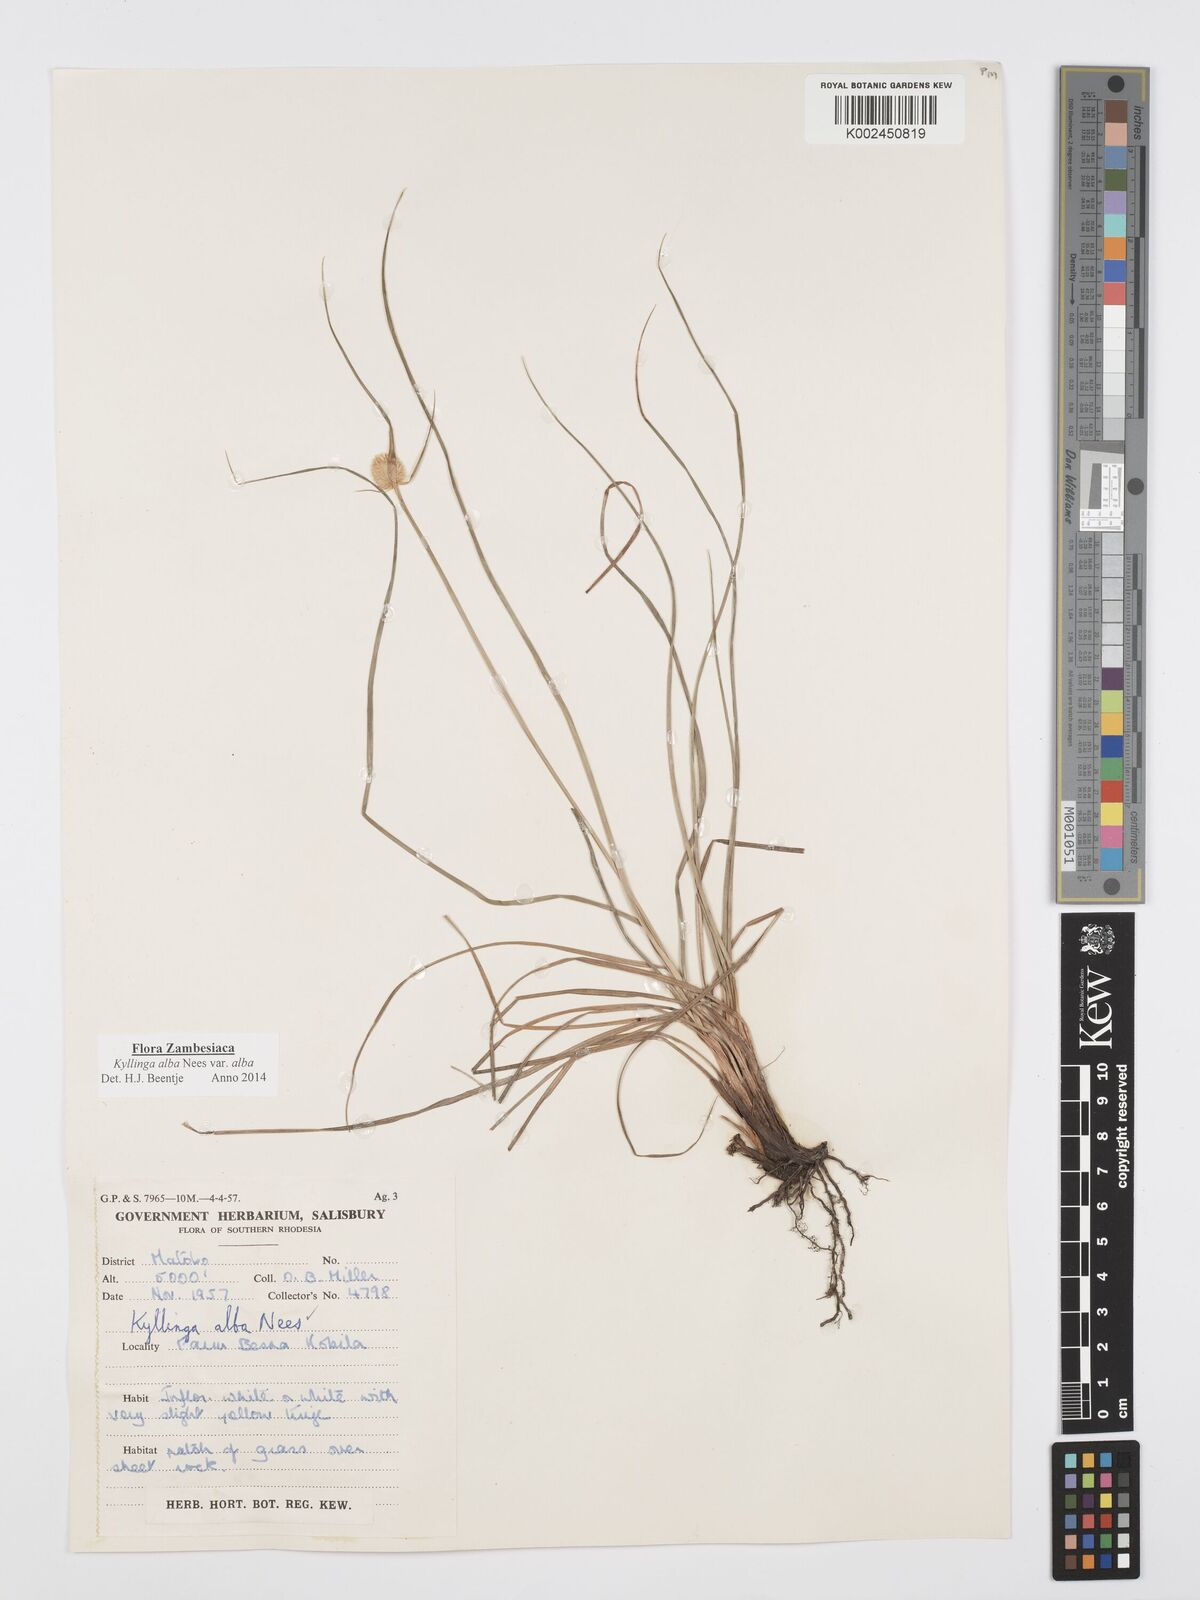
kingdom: Plantae
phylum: Tracheophyta
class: Liliopsida
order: Poales
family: Cyperaceae
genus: Cyperus
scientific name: Cyperus
